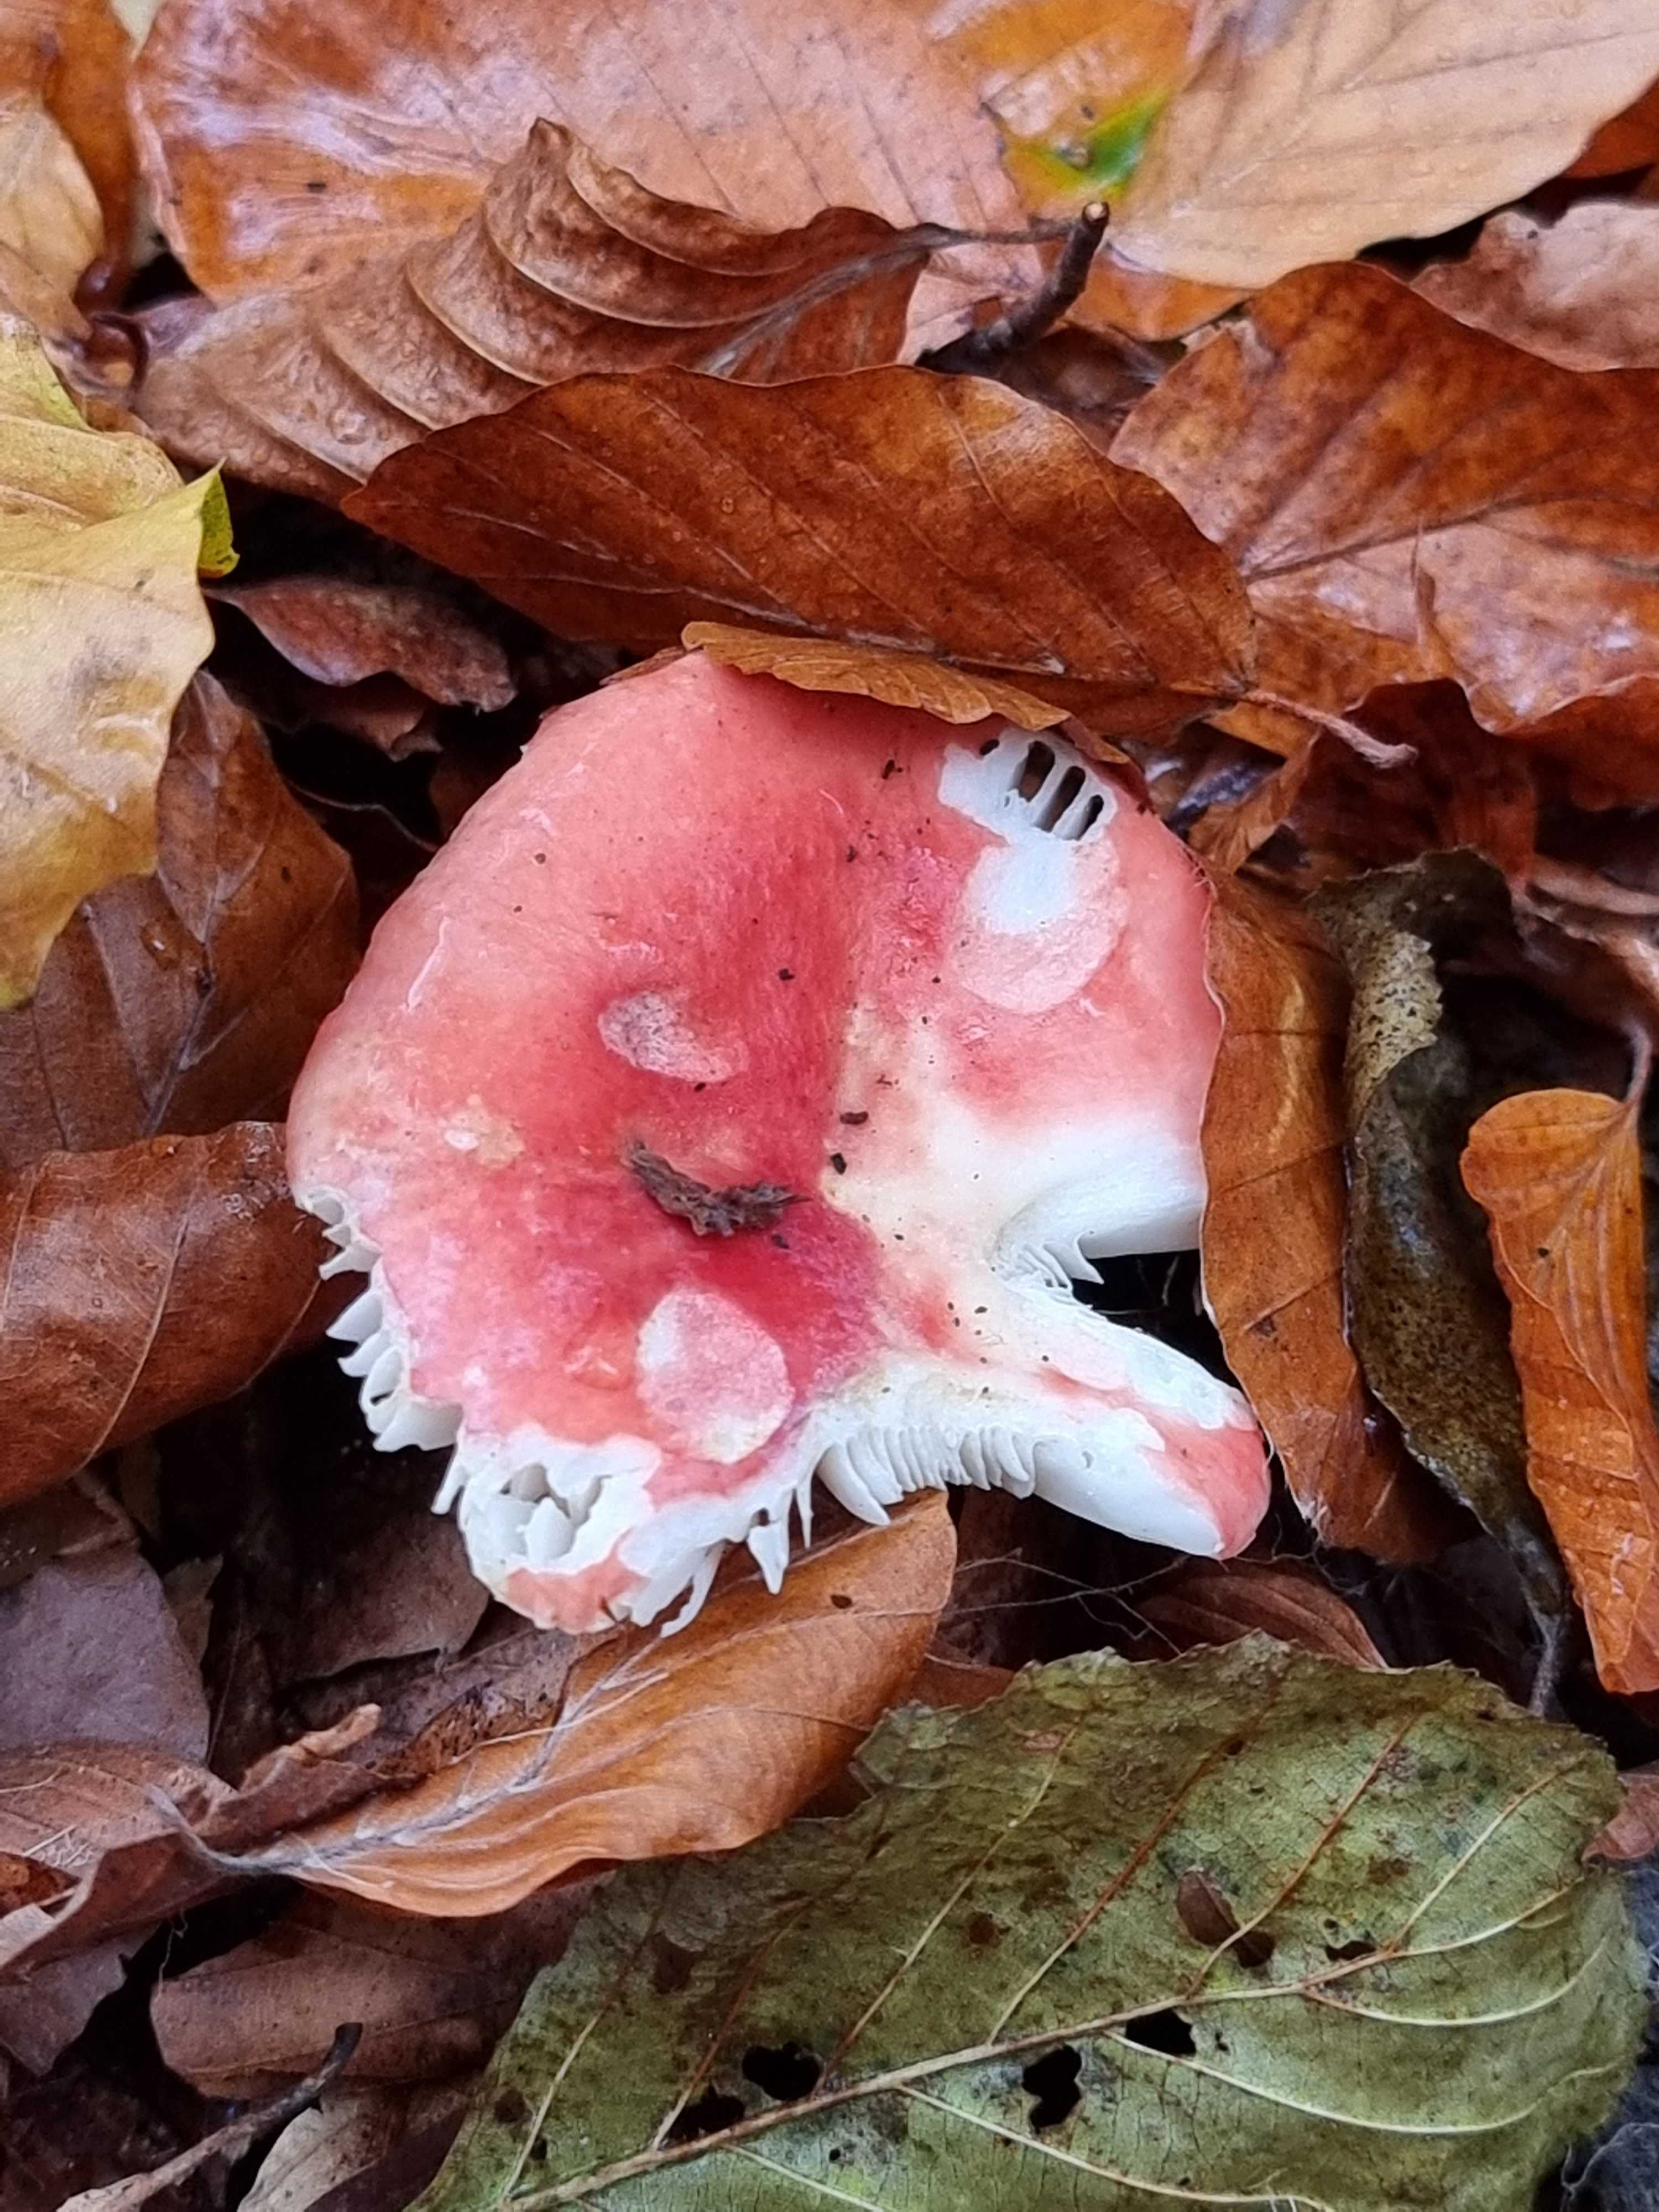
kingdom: Fungi
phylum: Basidiomycota
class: Agaricomycetes
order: Russulales
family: Russulaceae
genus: Russula
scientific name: Russula
